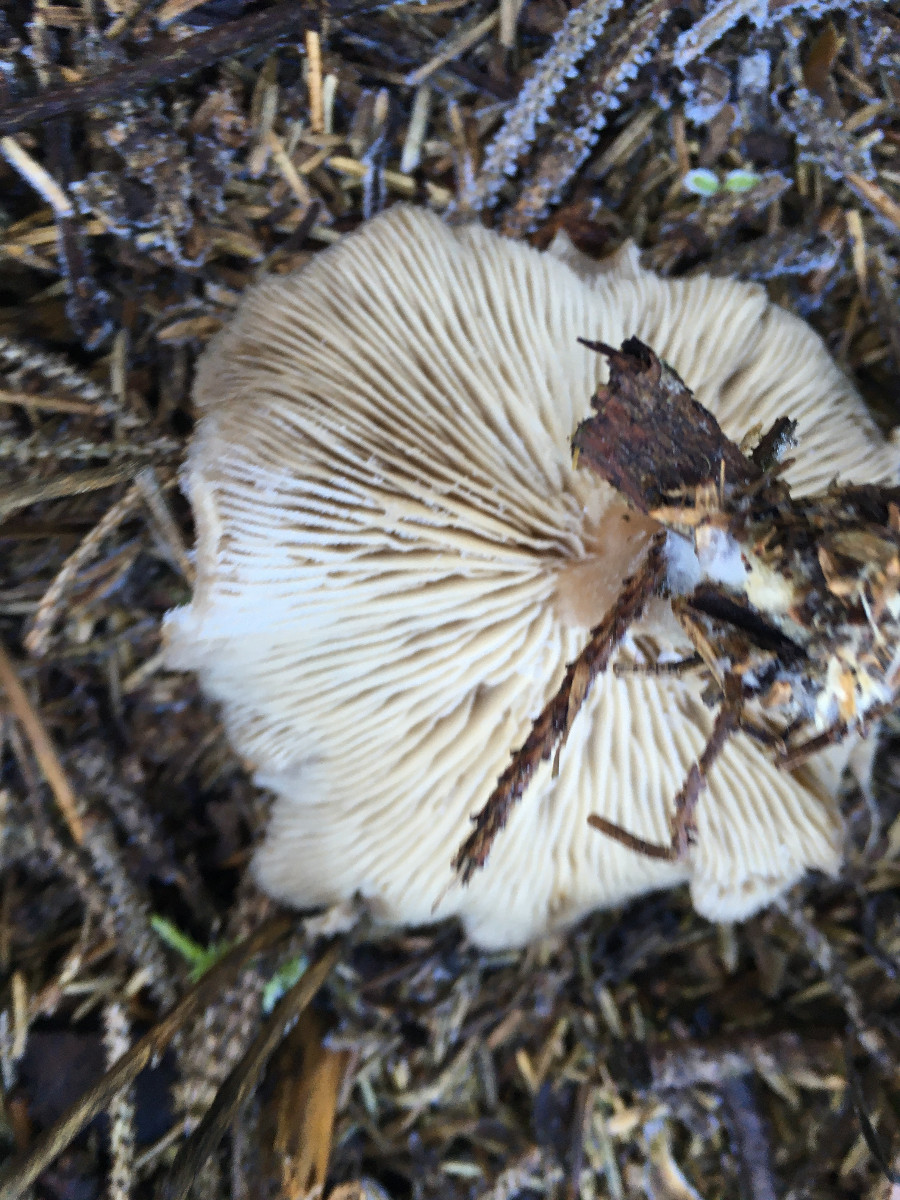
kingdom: Fungi
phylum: Basidiomycota
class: Agaricomycetes
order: Agaricales
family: Tricholomataceae
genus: Clitocybe
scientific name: Clitocybe
